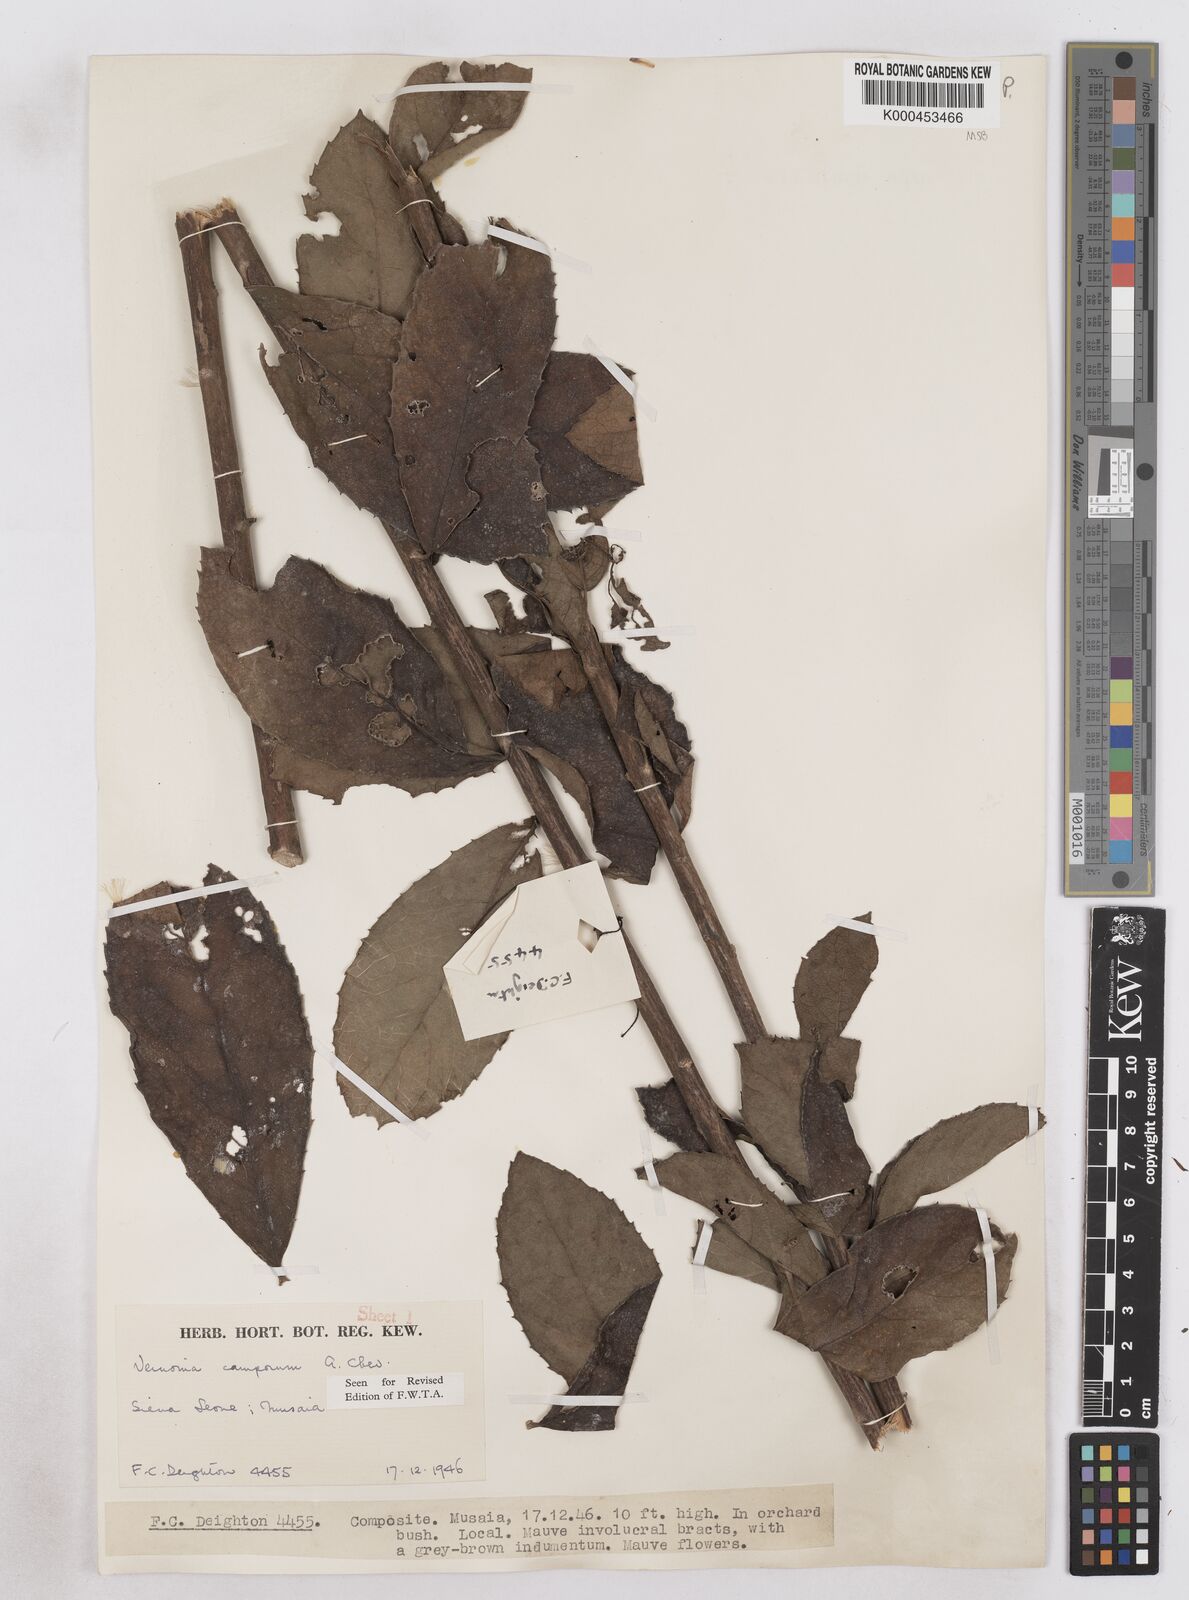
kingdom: Plantae
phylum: Tracheophyta
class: Magnoliopsida
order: Asterales
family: Asteraceae
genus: Vernoniastrum
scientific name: Vernoniastrum camporum
